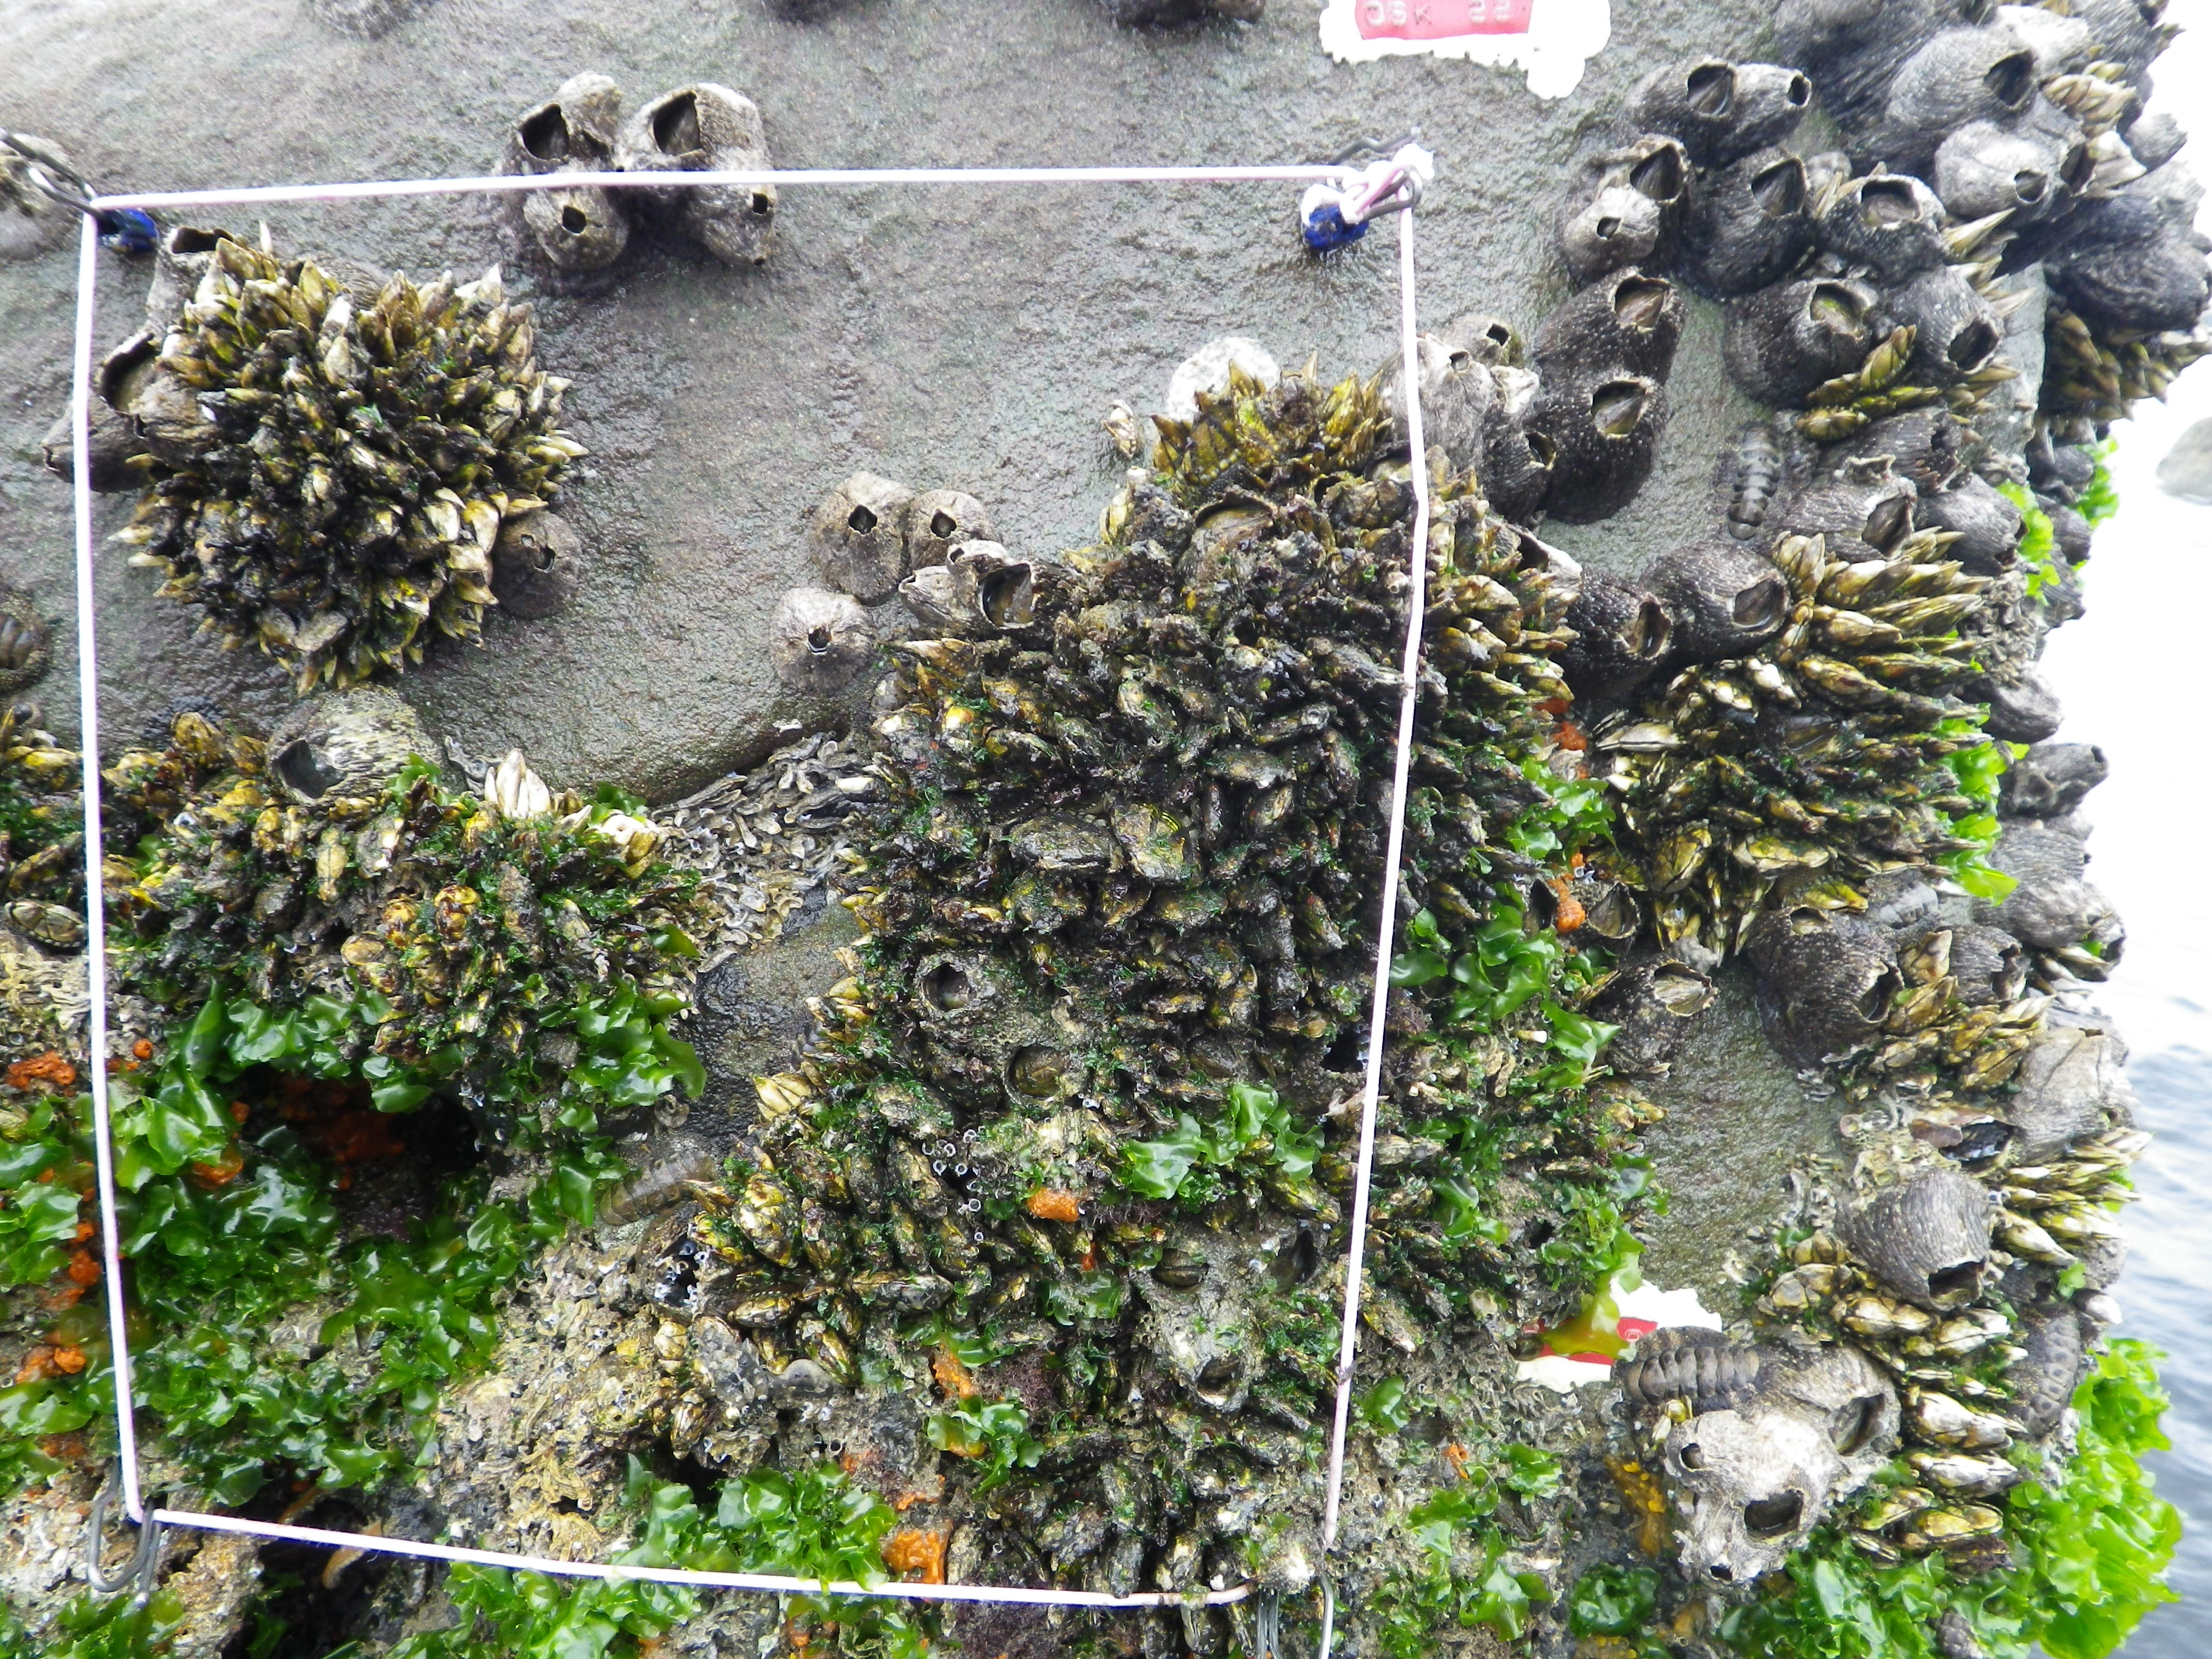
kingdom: Animalia
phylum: Arthropoda
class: Maxillopoda
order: Sessilia
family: Chthamalidae
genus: Chthamalus
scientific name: Chthamalus challengeri
